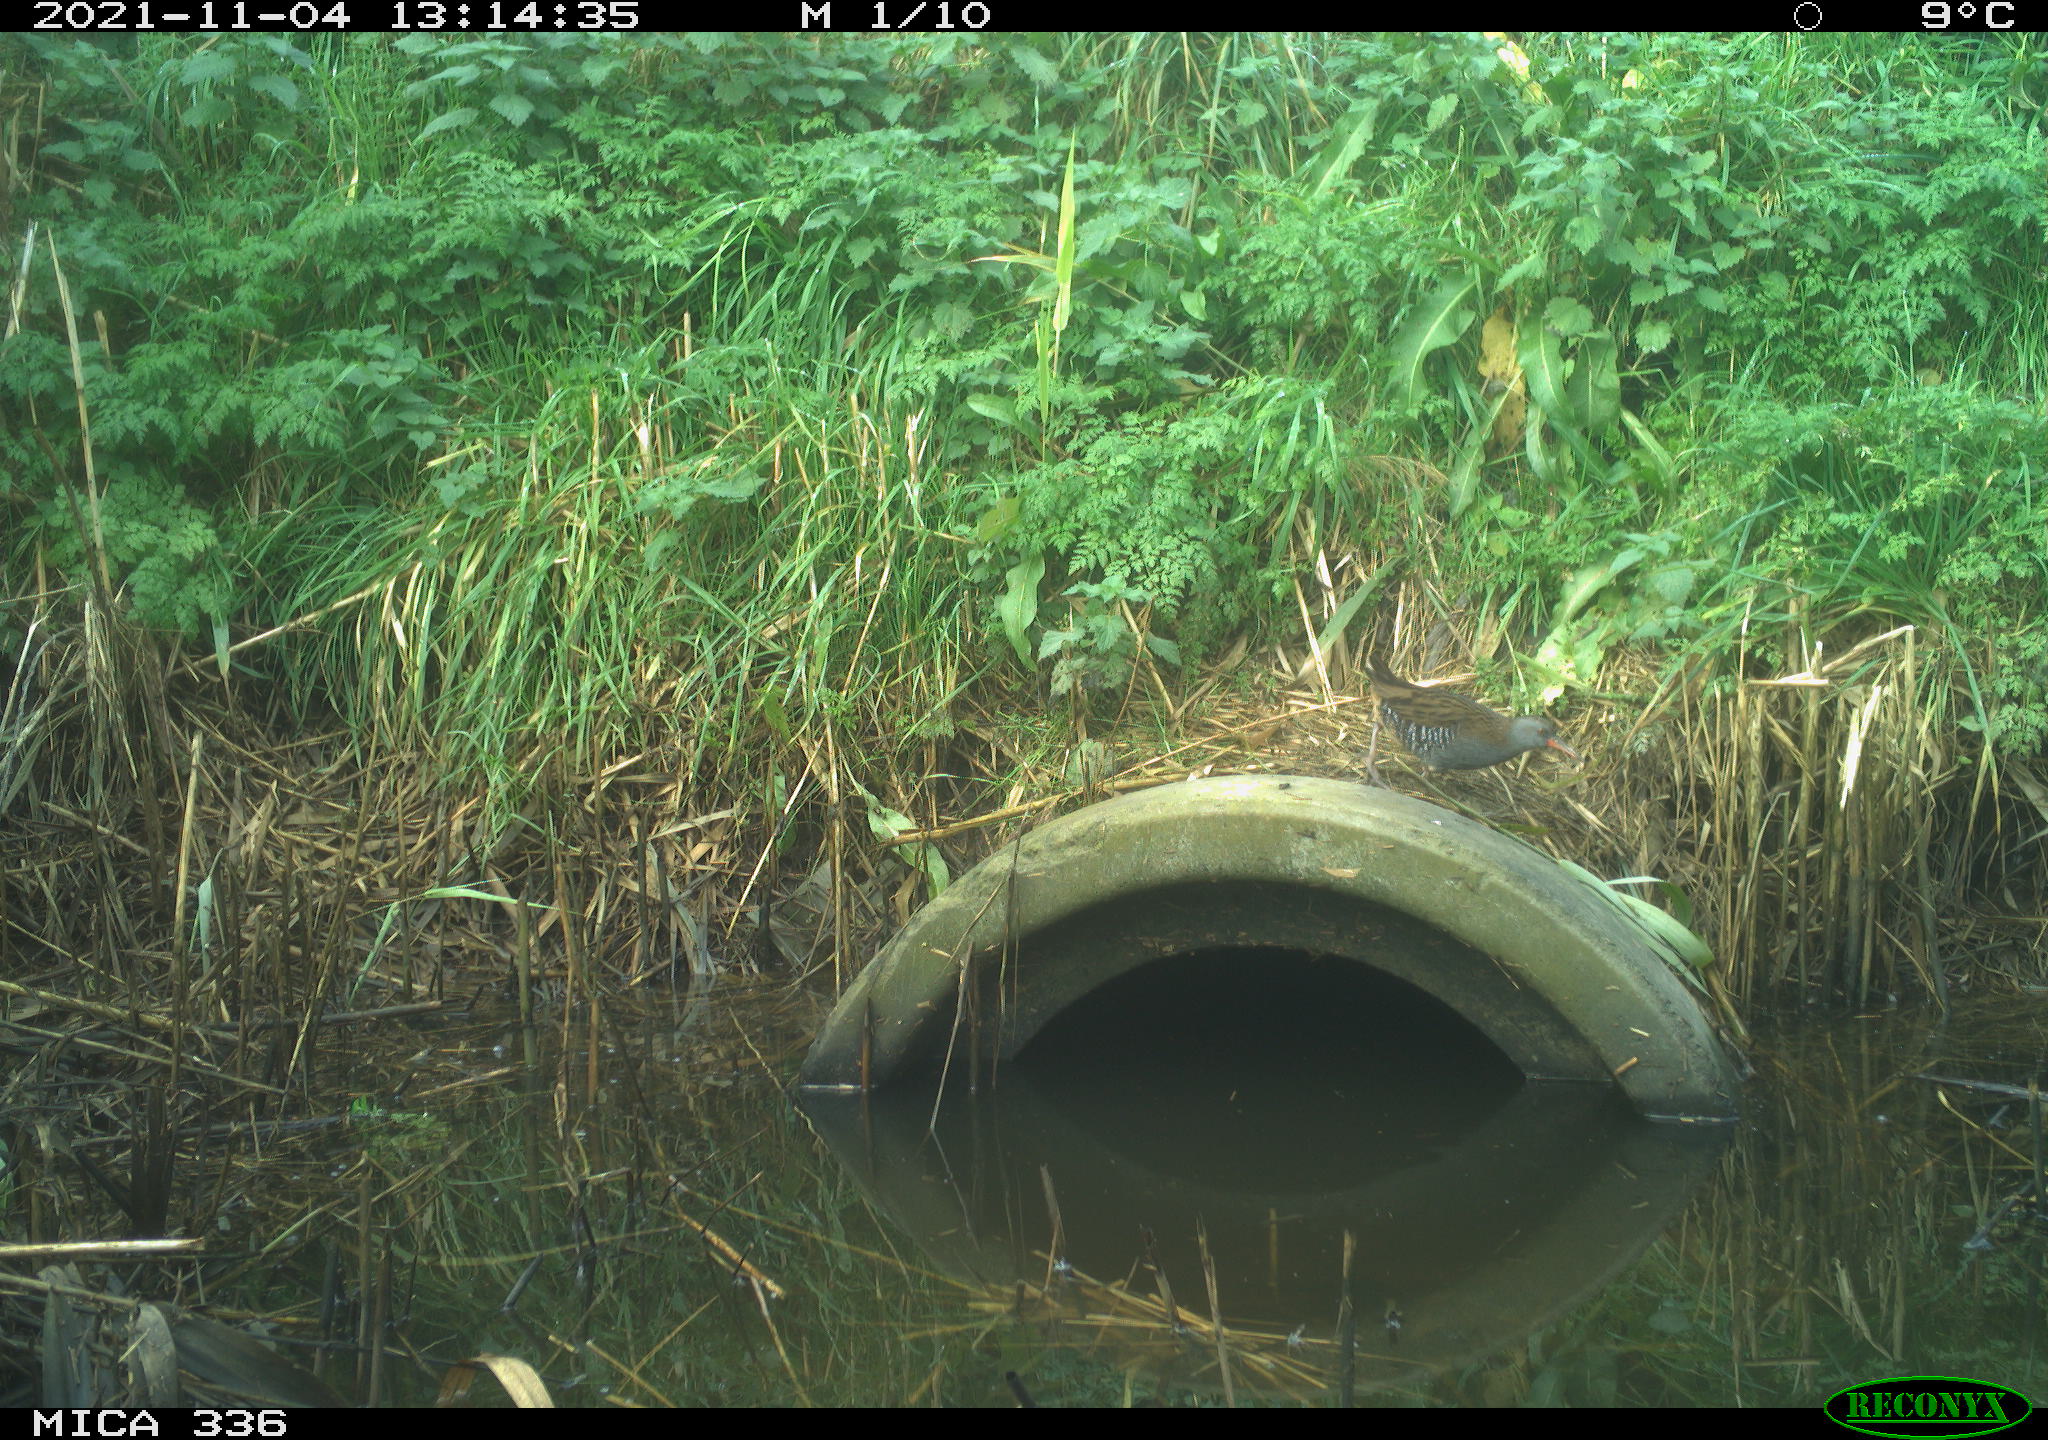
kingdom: Animalia
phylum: Chordata
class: Aves
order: Gruiformes
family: Rallidae
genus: Gallinula
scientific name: Gallinula chloropus
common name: Common moorhen
